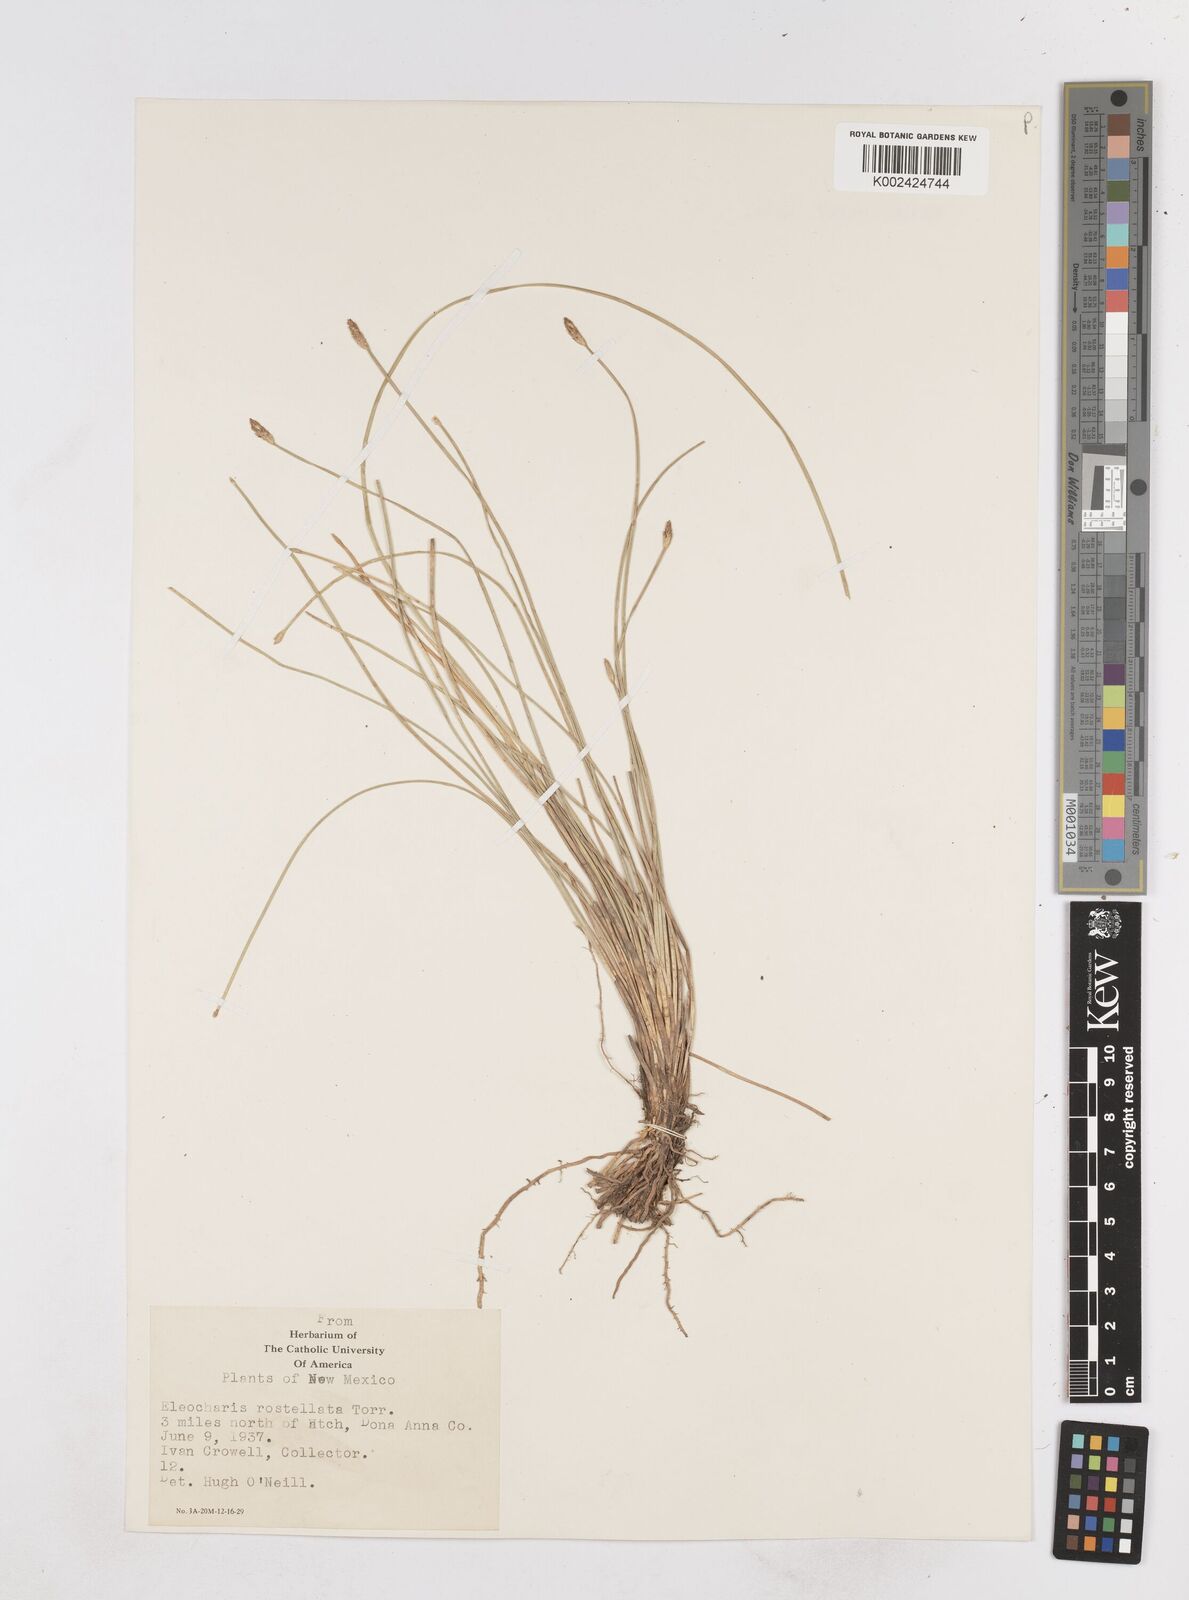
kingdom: Plantae
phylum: Tracheophyta
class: Liliopsida
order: Poales
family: Cyperaceae
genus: Eleocharis
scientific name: Eleocharis rostellata
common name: Walking sedge
